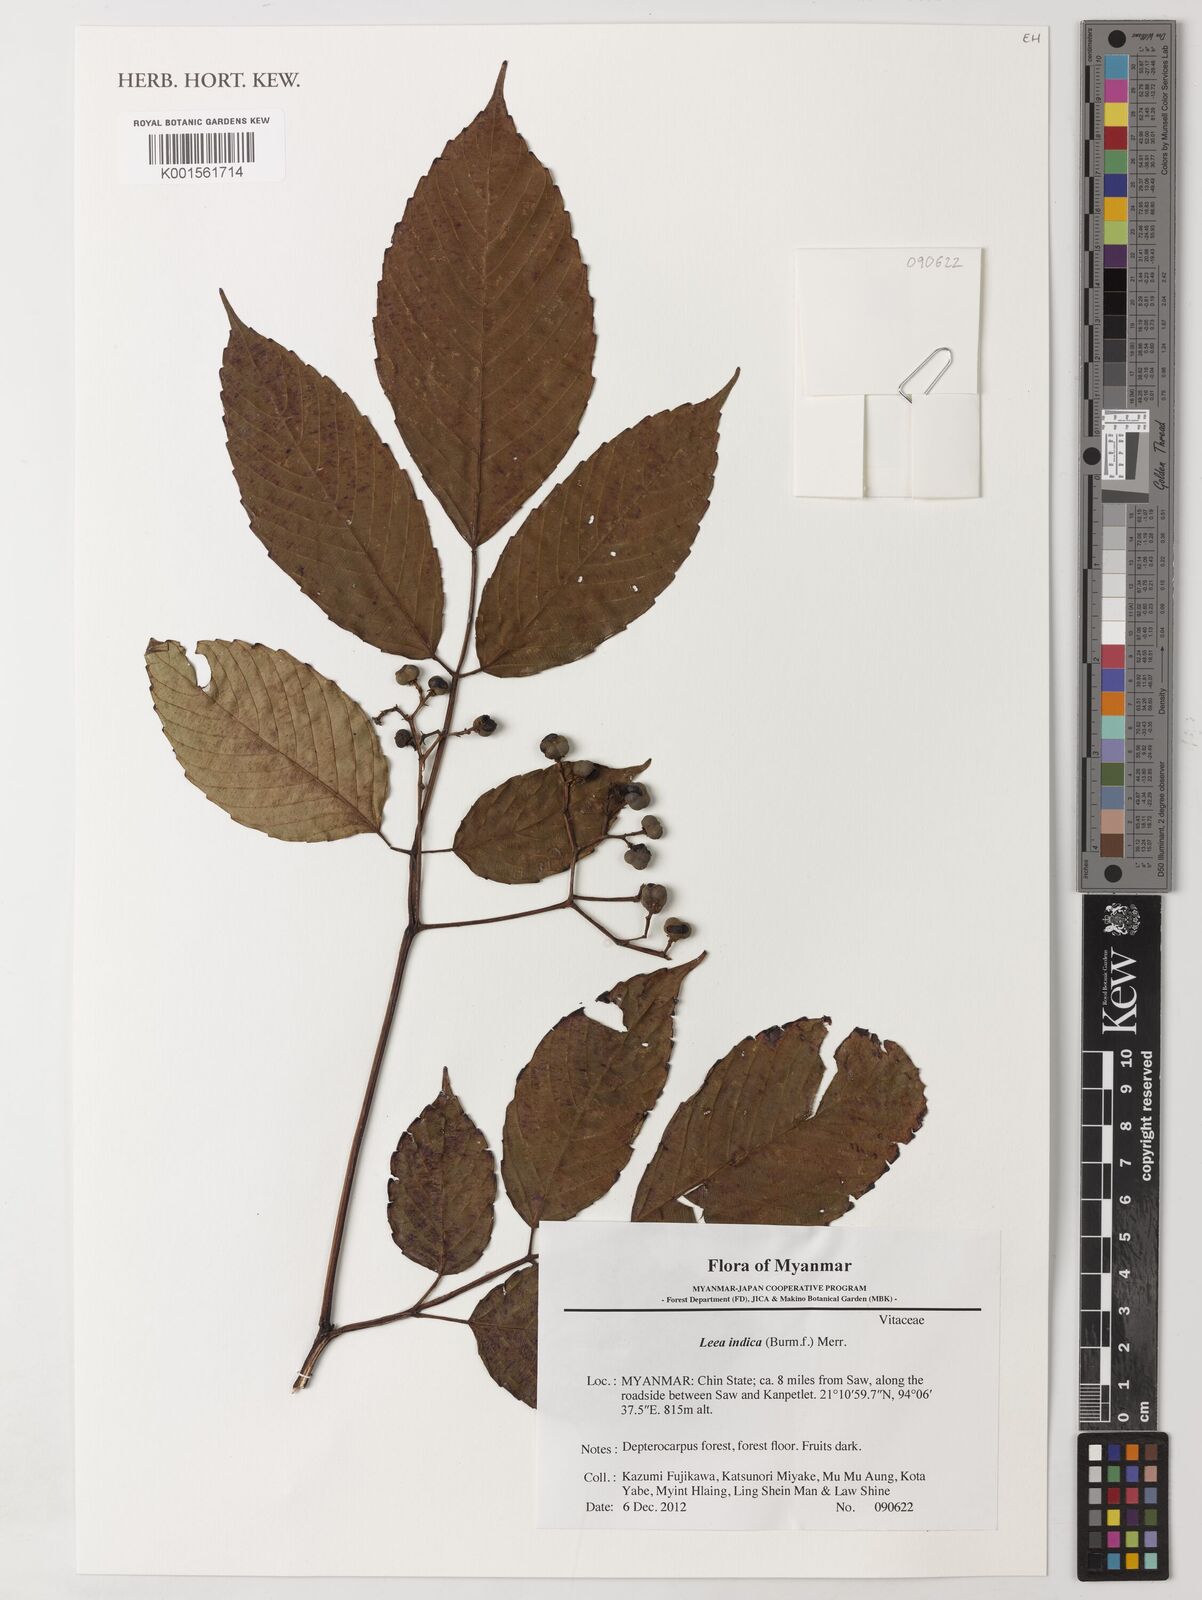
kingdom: Plantae
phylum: Tracheophyta
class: Magnoliopsida
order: Vitales
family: Vitaceae
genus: Leea
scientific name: Leea indica
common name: Bandicoot-berry
